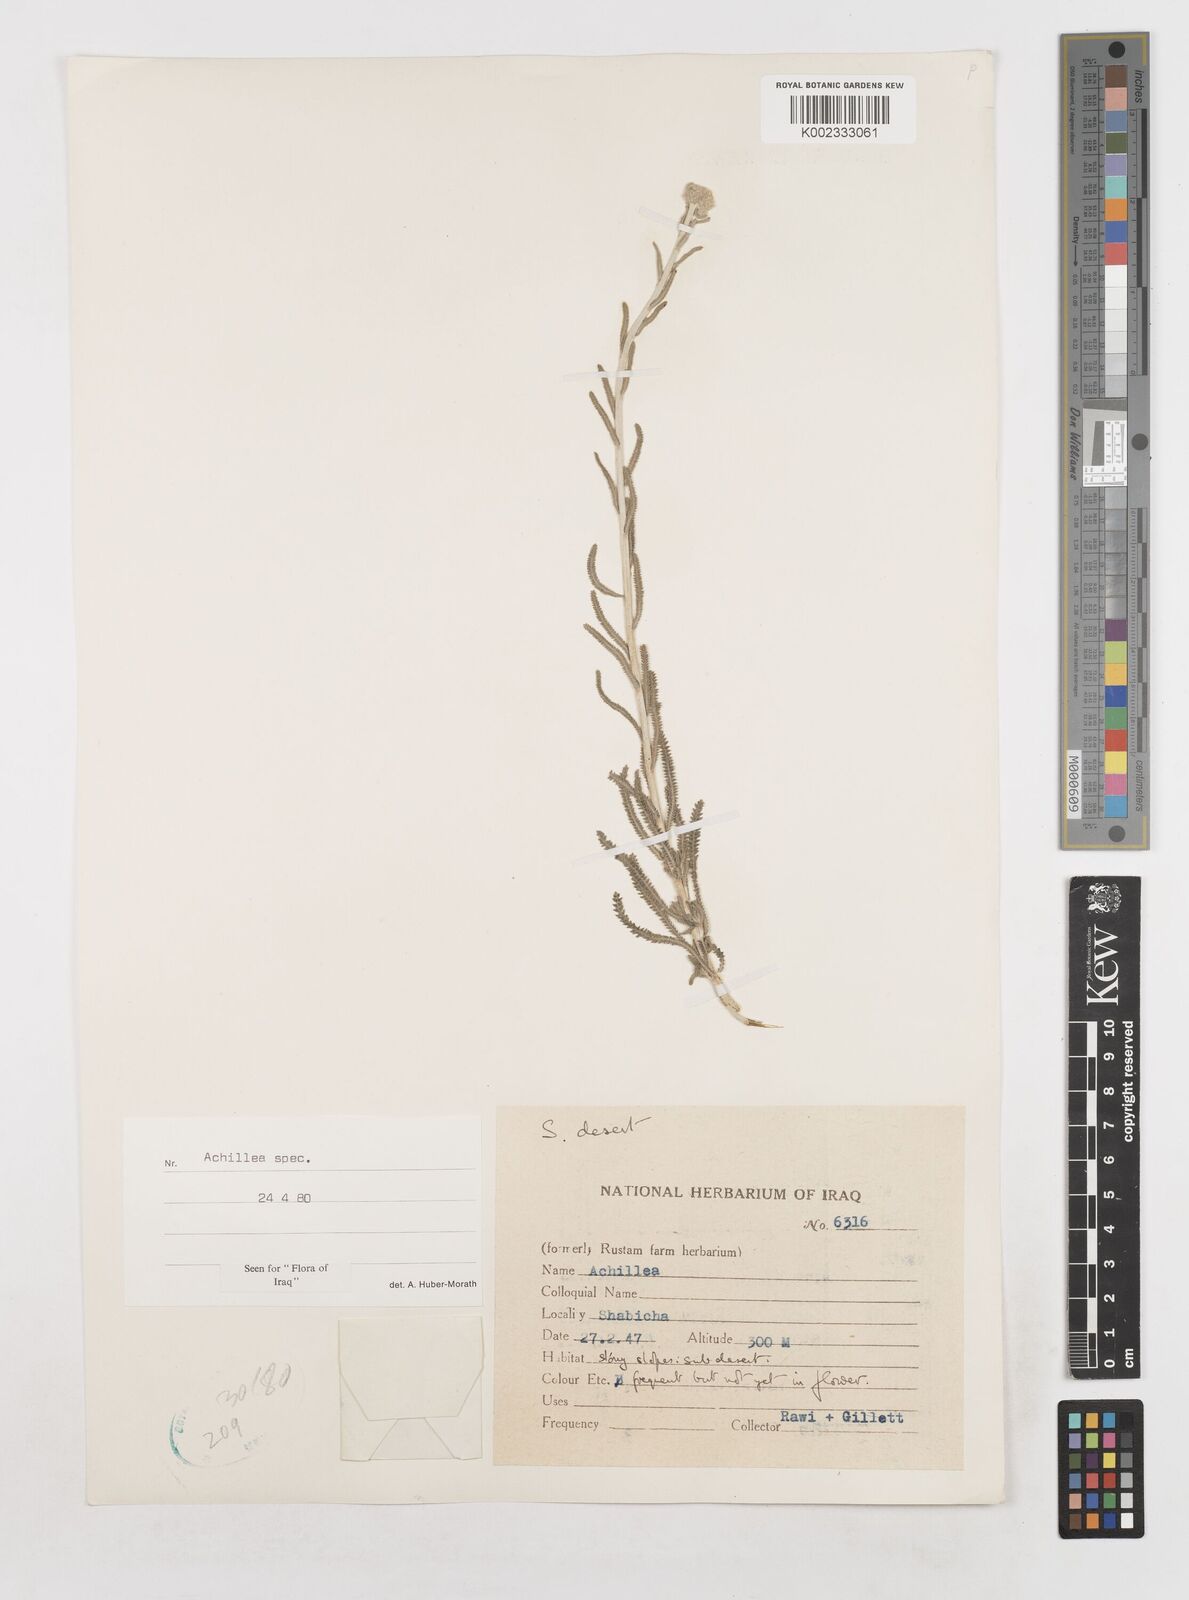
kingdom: Plantae
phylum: Tracheophyta
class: Magnoliopsida
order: Asterales
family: Asteraceae
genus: Achillea
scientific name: Achillea
